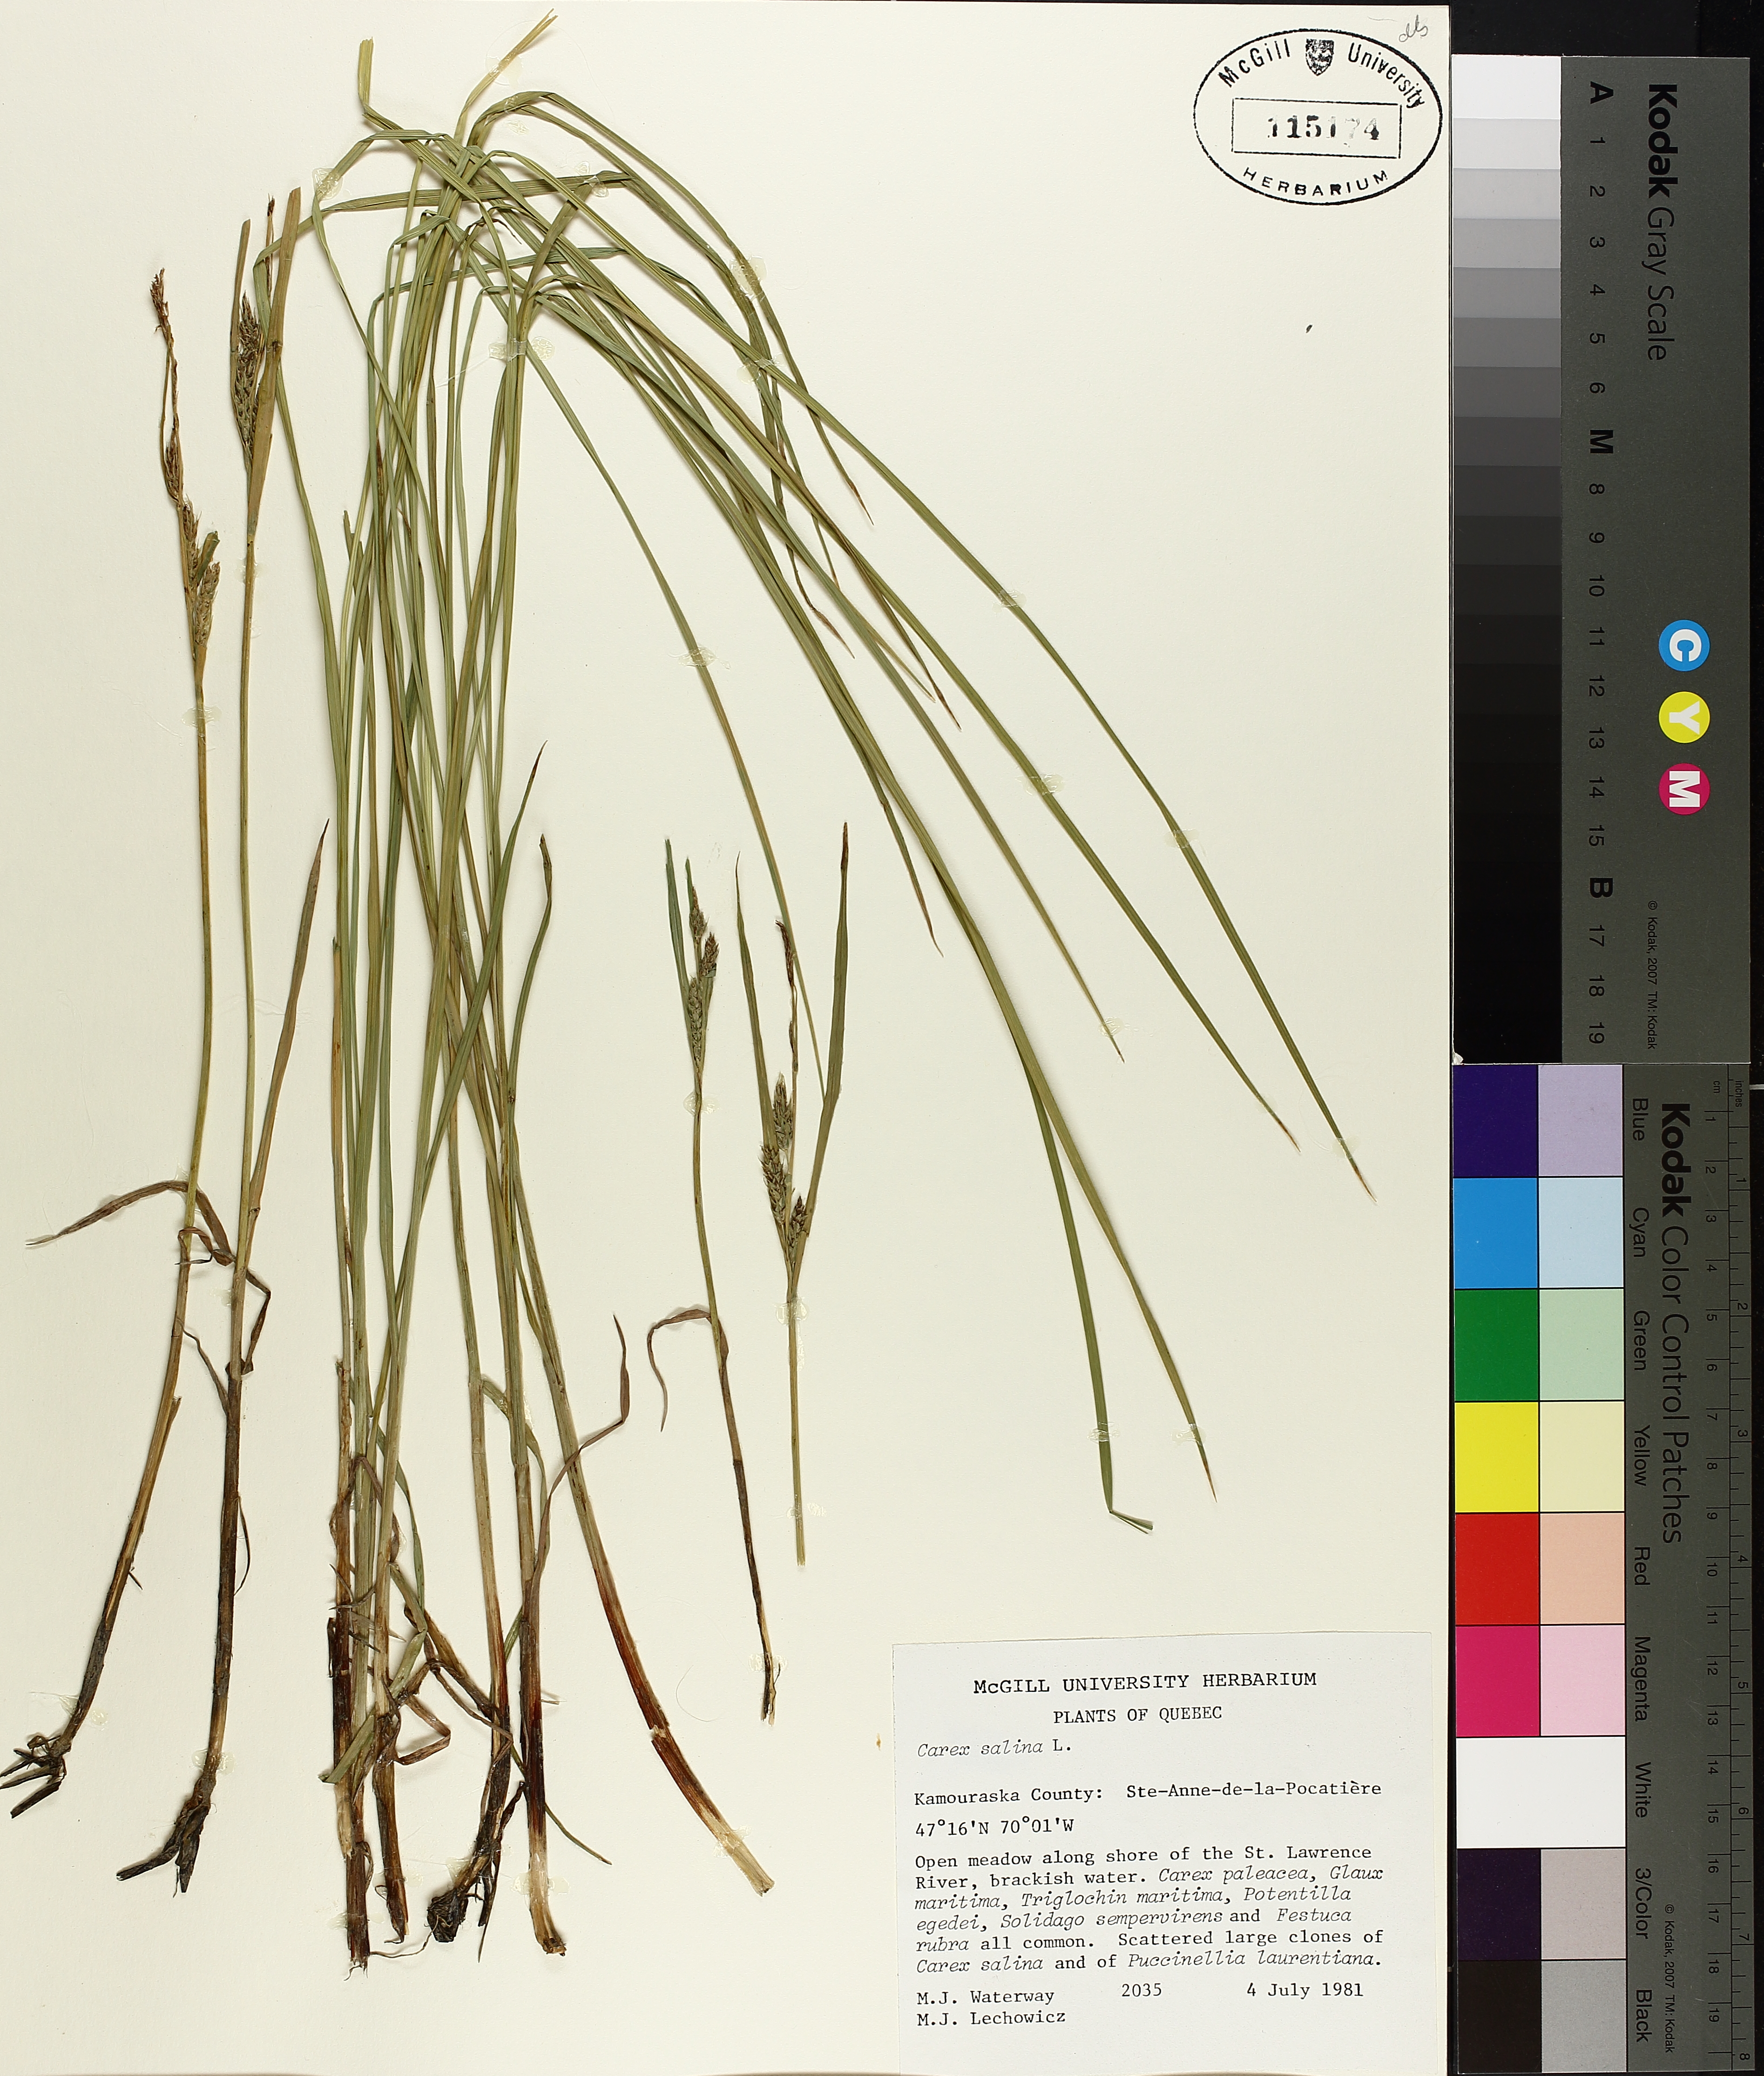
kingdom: Plantae
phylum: Tracheophyta
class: Liliopsida
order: Poales
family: Cyperaceae
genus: Carex
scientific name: Carex salina
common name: Saltmarsh sedge
